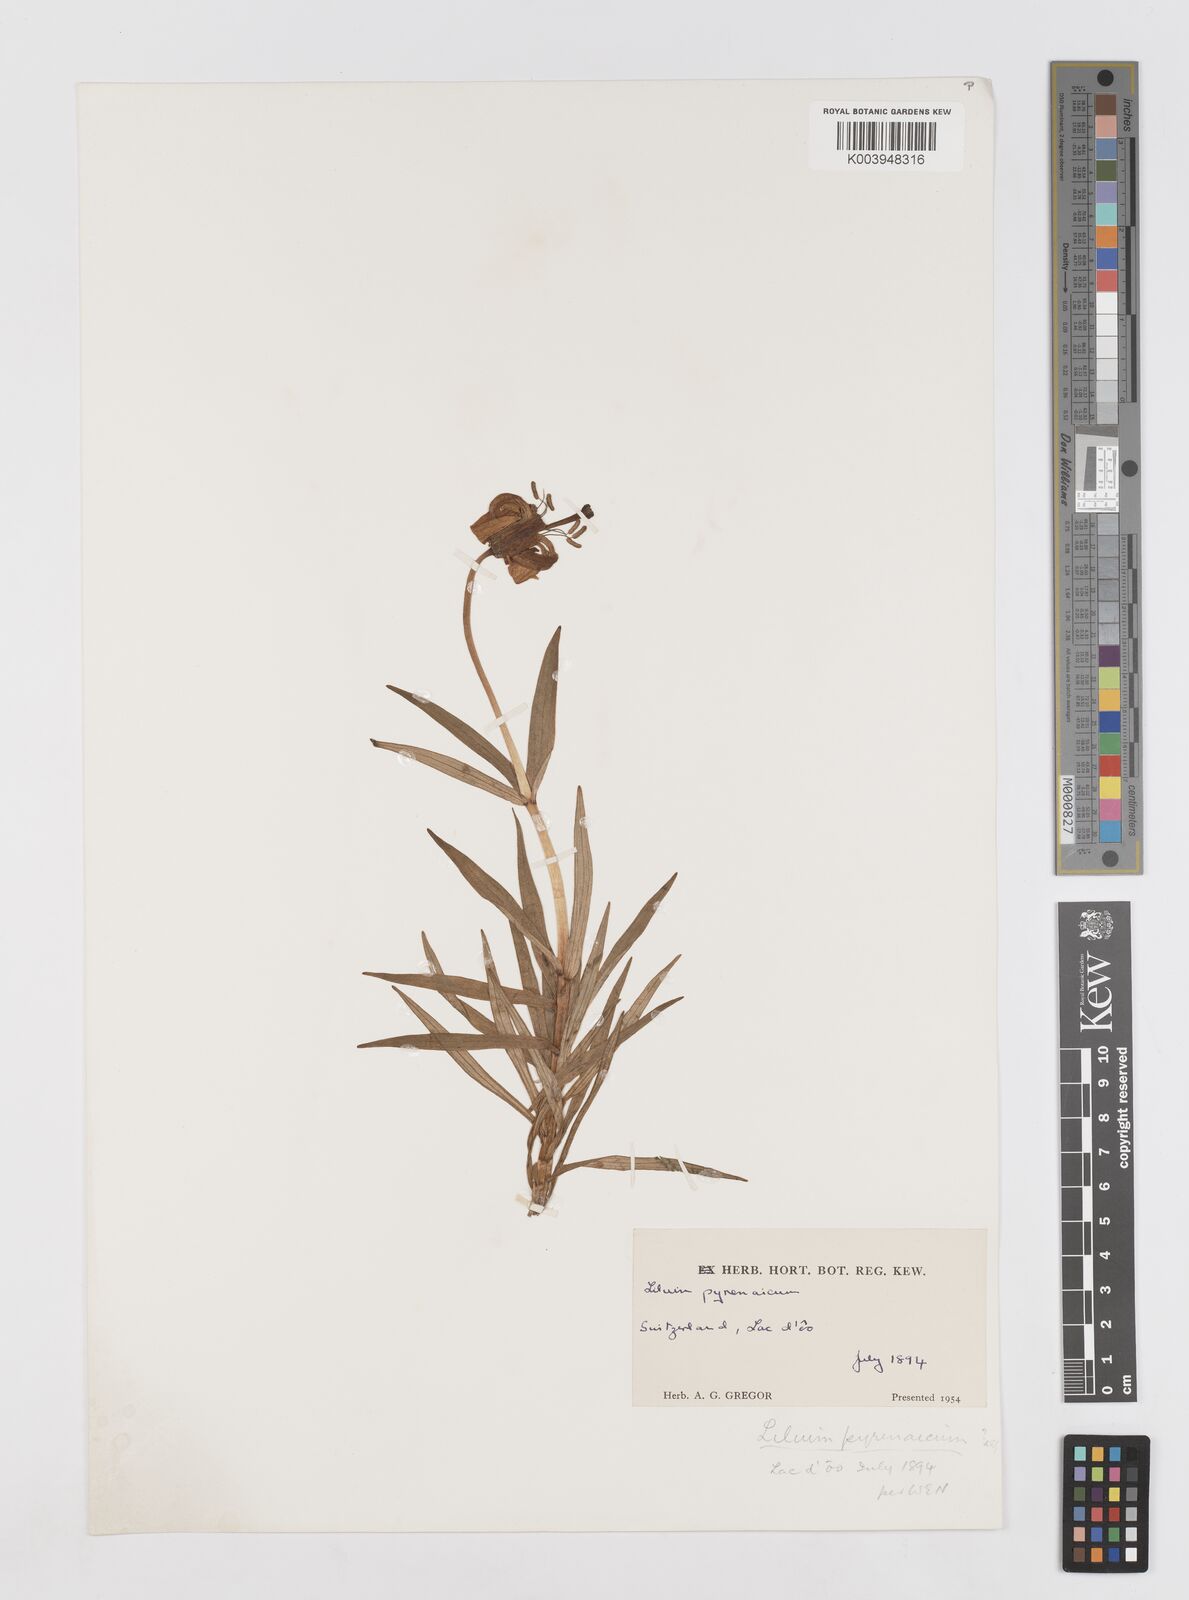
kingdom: Plantae
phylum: Tracheophyta
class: Liliopsida
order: Liliales
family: Liliaceae
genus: Lilium
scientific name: Lilium pyrenaicum
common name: Pyrenean lily
